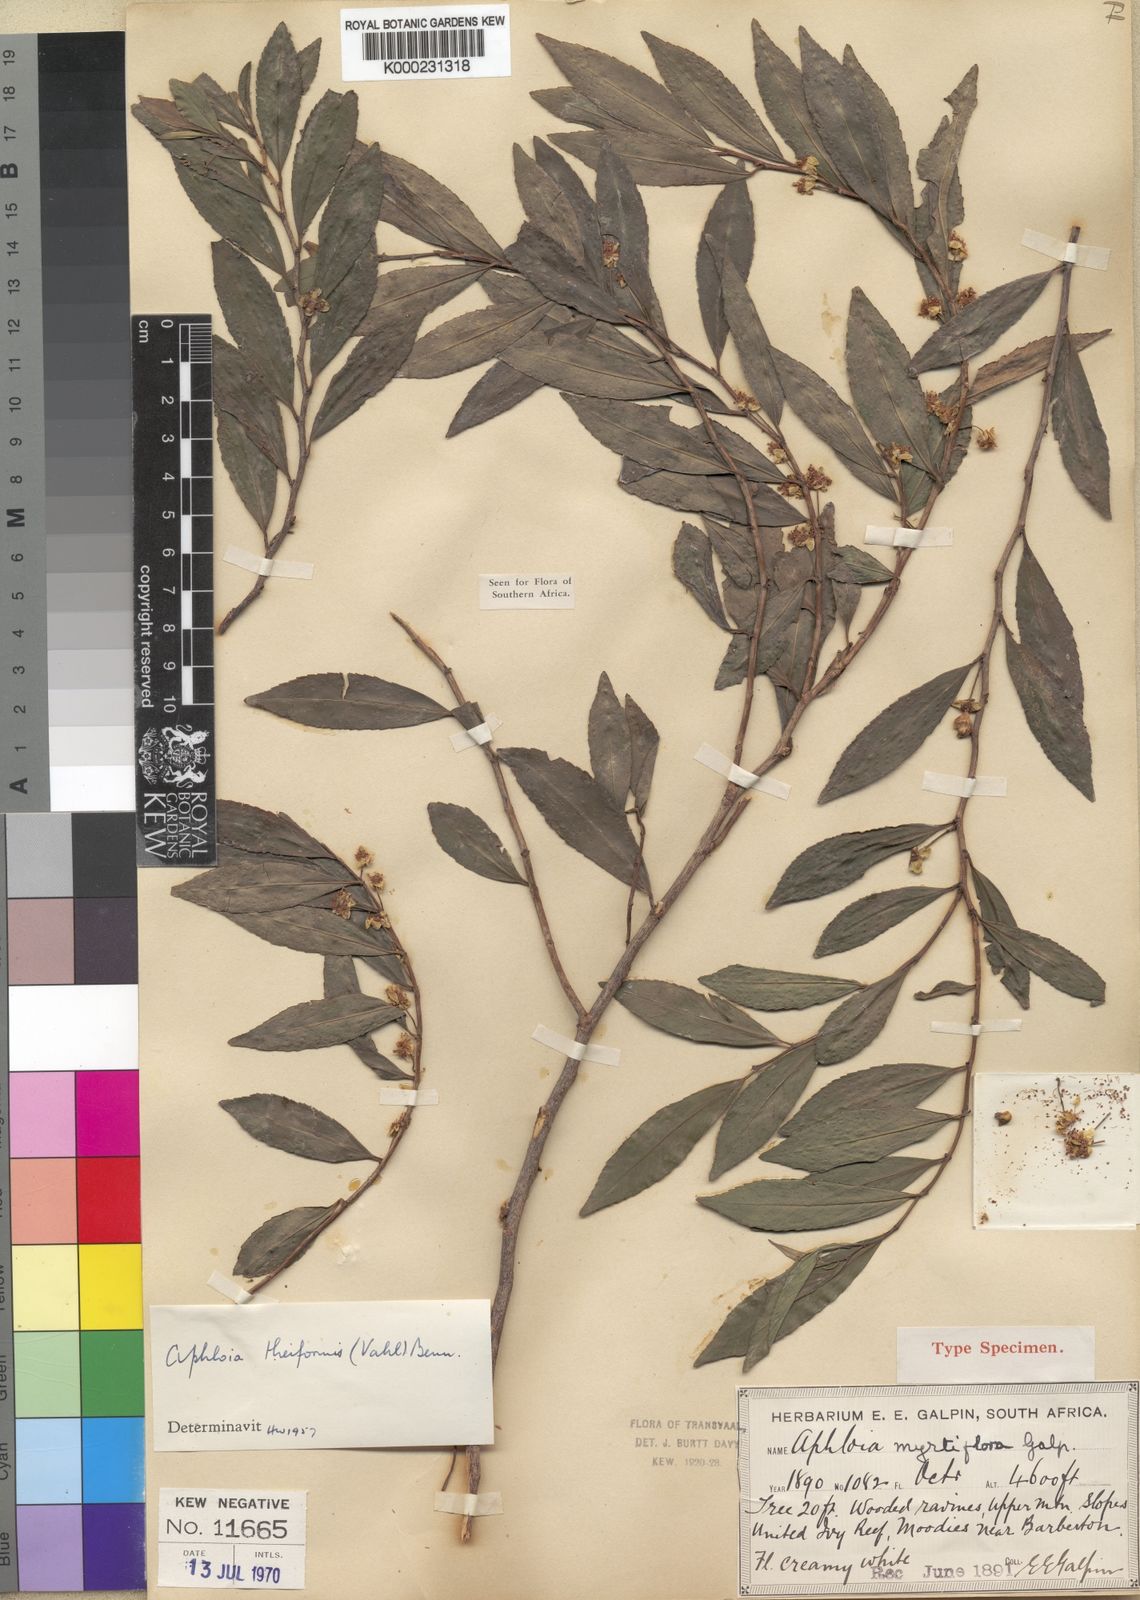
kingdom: Plantae
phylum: Tracheophyta
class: Magnoliopsida
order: Crossosomatales
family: Aphloiaceae
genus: Aphloia
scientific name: Aphloia theiformis
